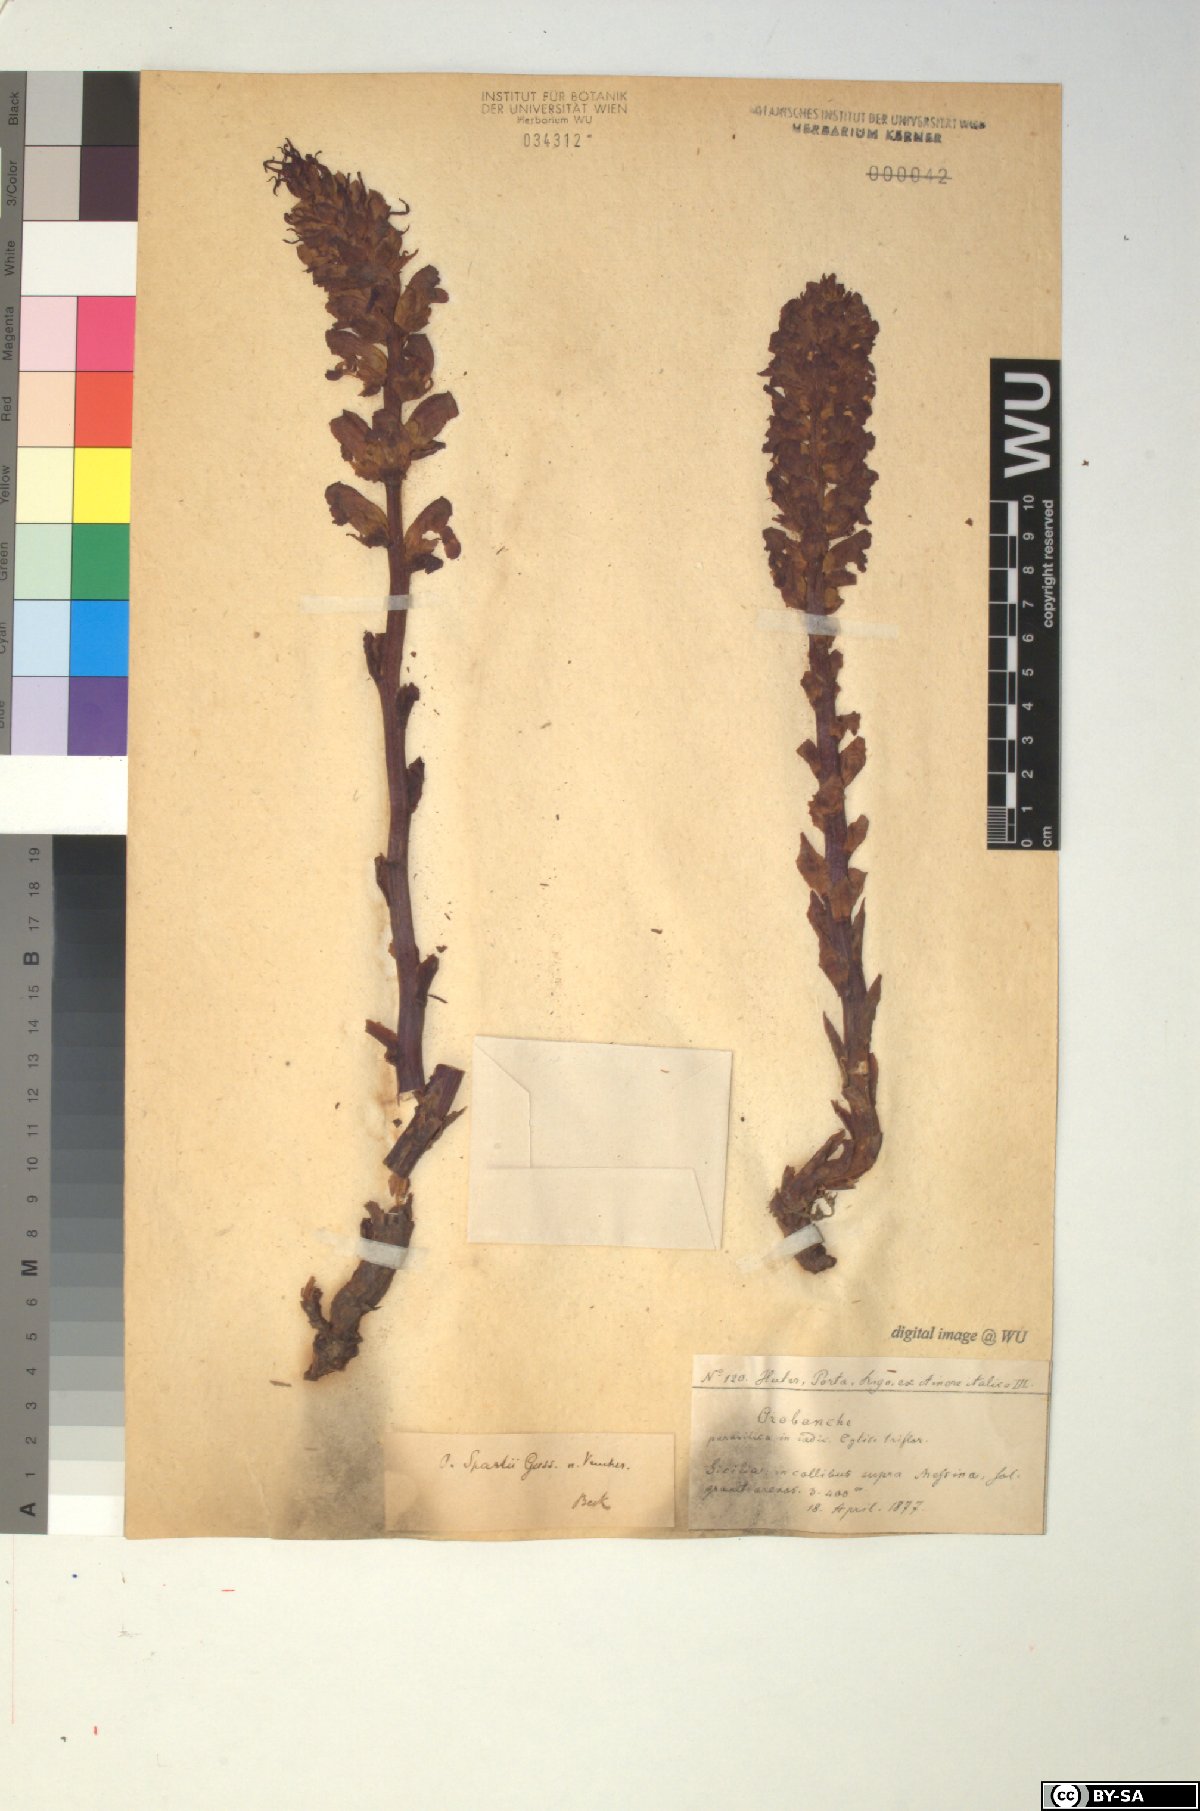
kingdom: Plantae
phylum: Tracheophyta
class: Magnoliopsida
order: Lamiales
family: Orobanchaceae
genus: Orobanche
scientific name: Orobanche variegata
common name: Variegated broomrape
